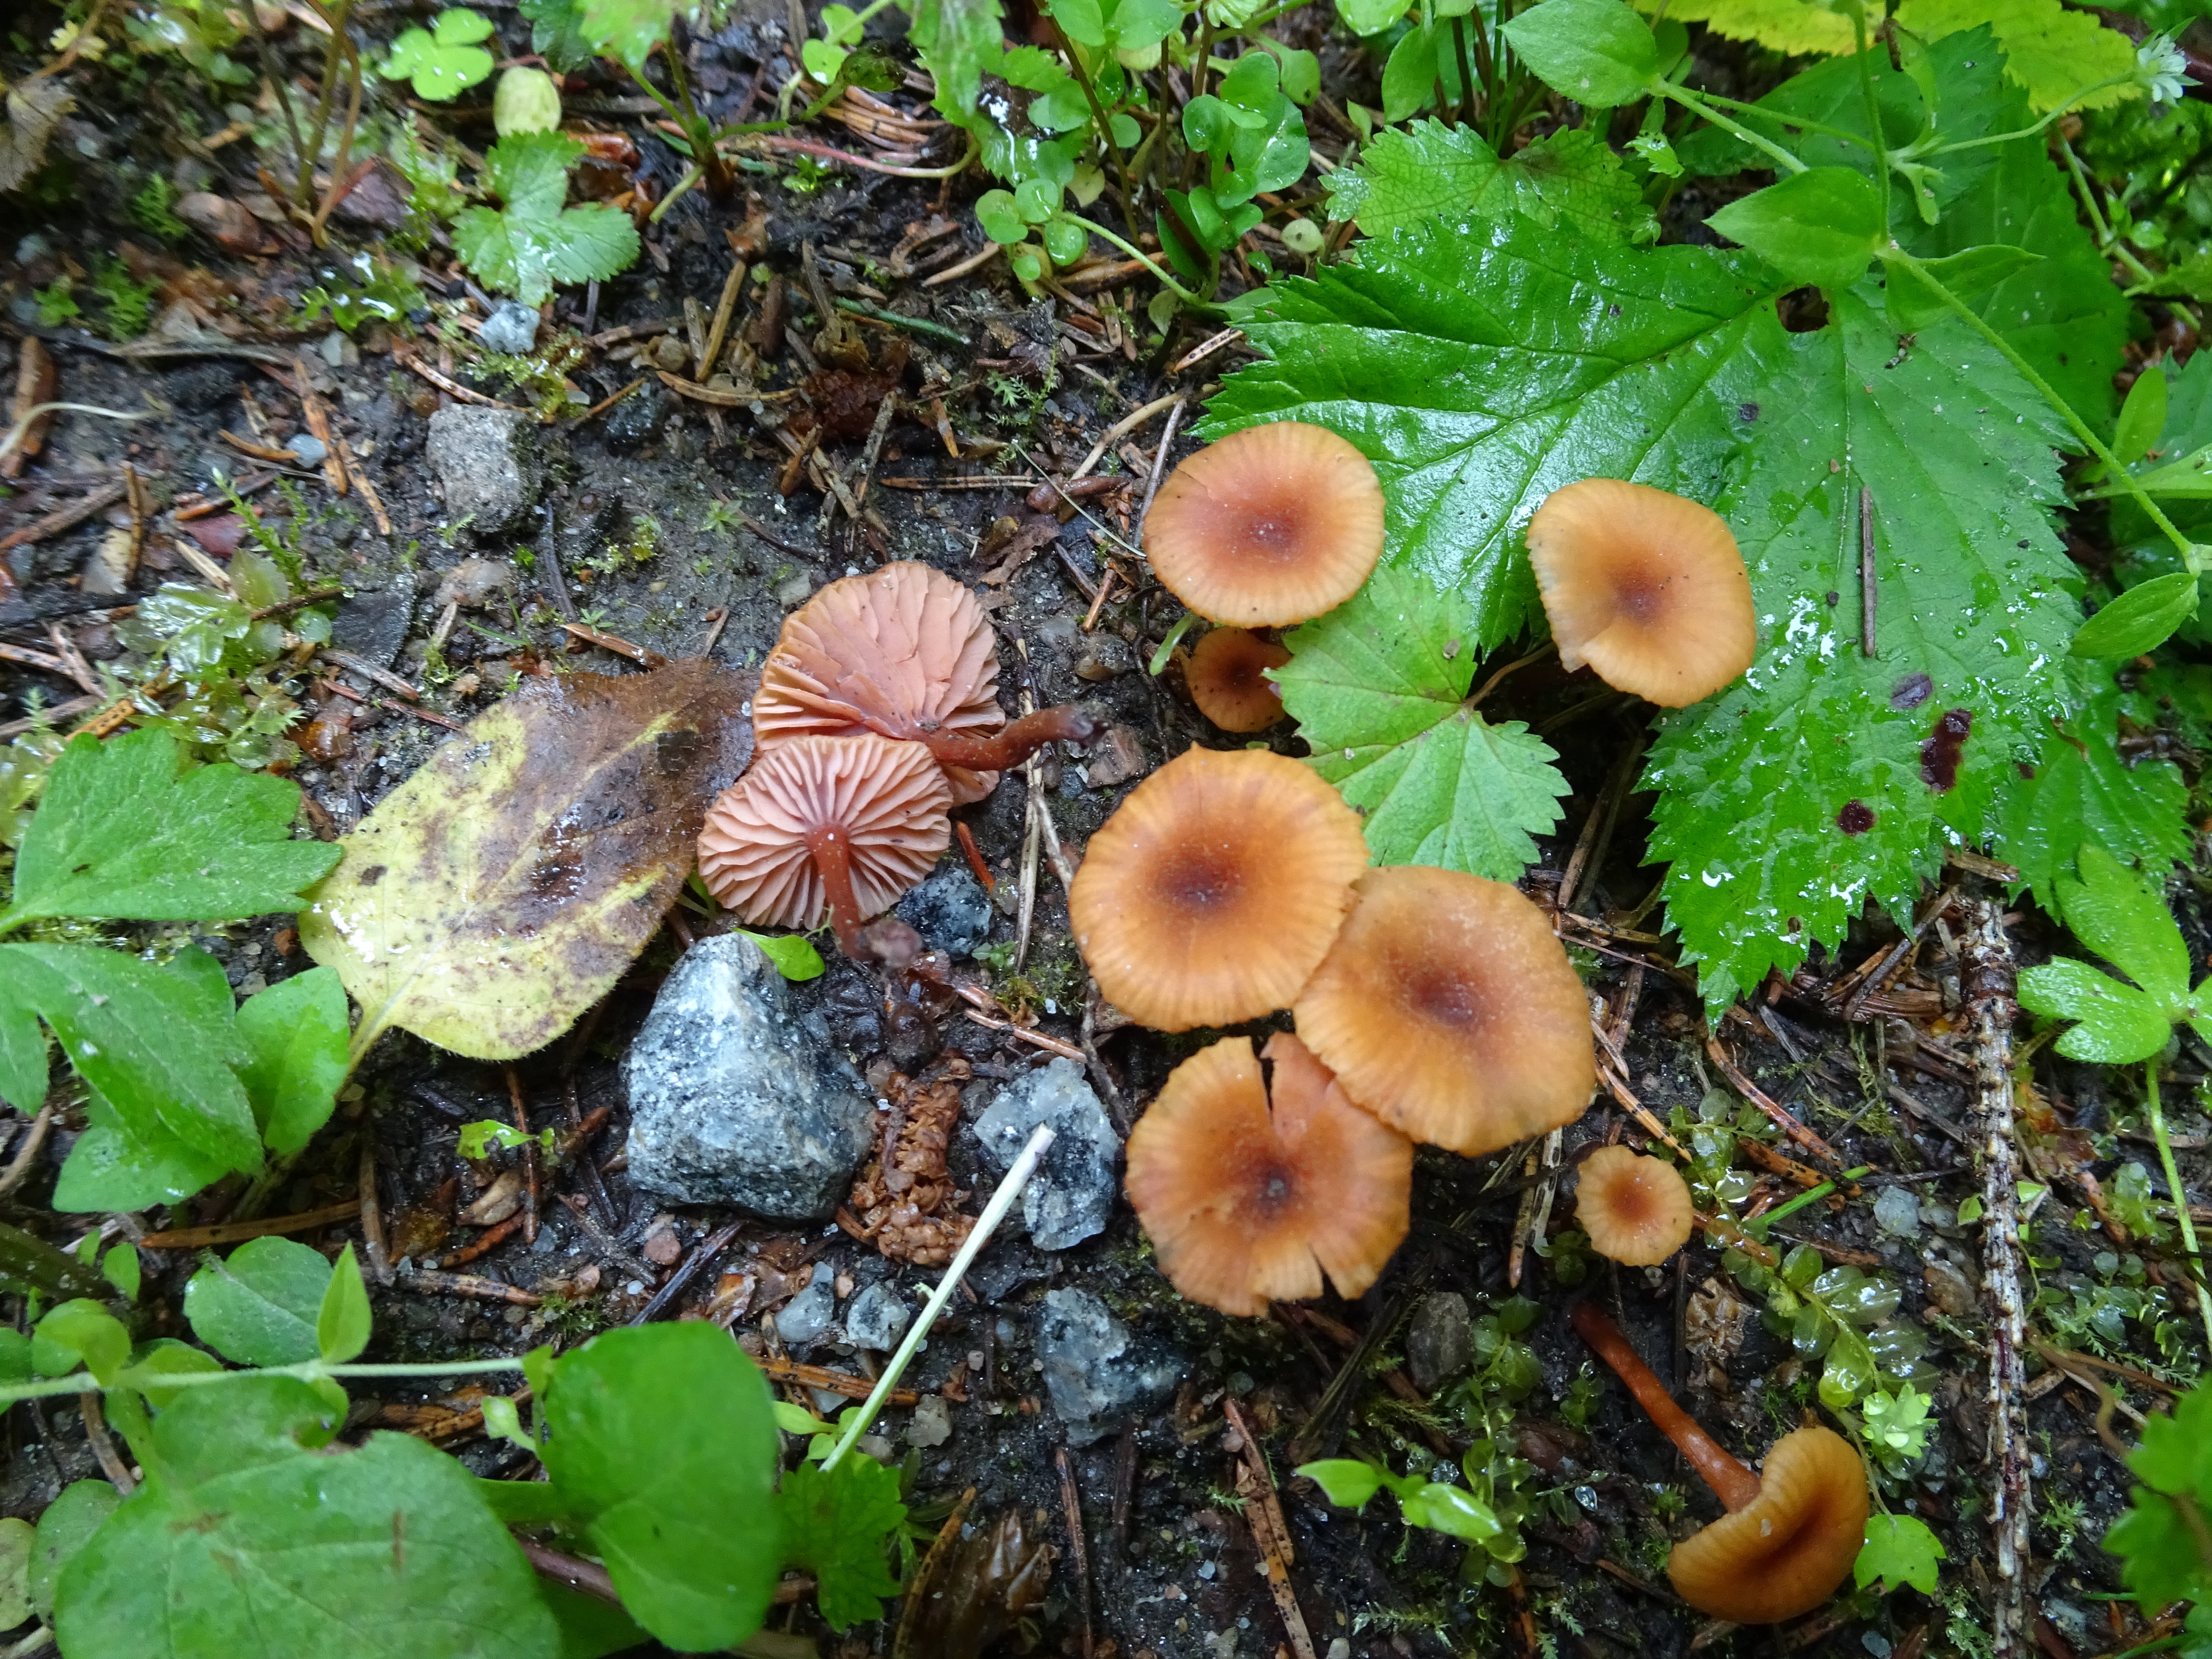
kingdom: Fungi
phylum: Basidiomycota
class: Agaricomycetes
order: Agaricales
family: Hydnangiaceae
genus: Laccaria
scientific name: Laccaria
